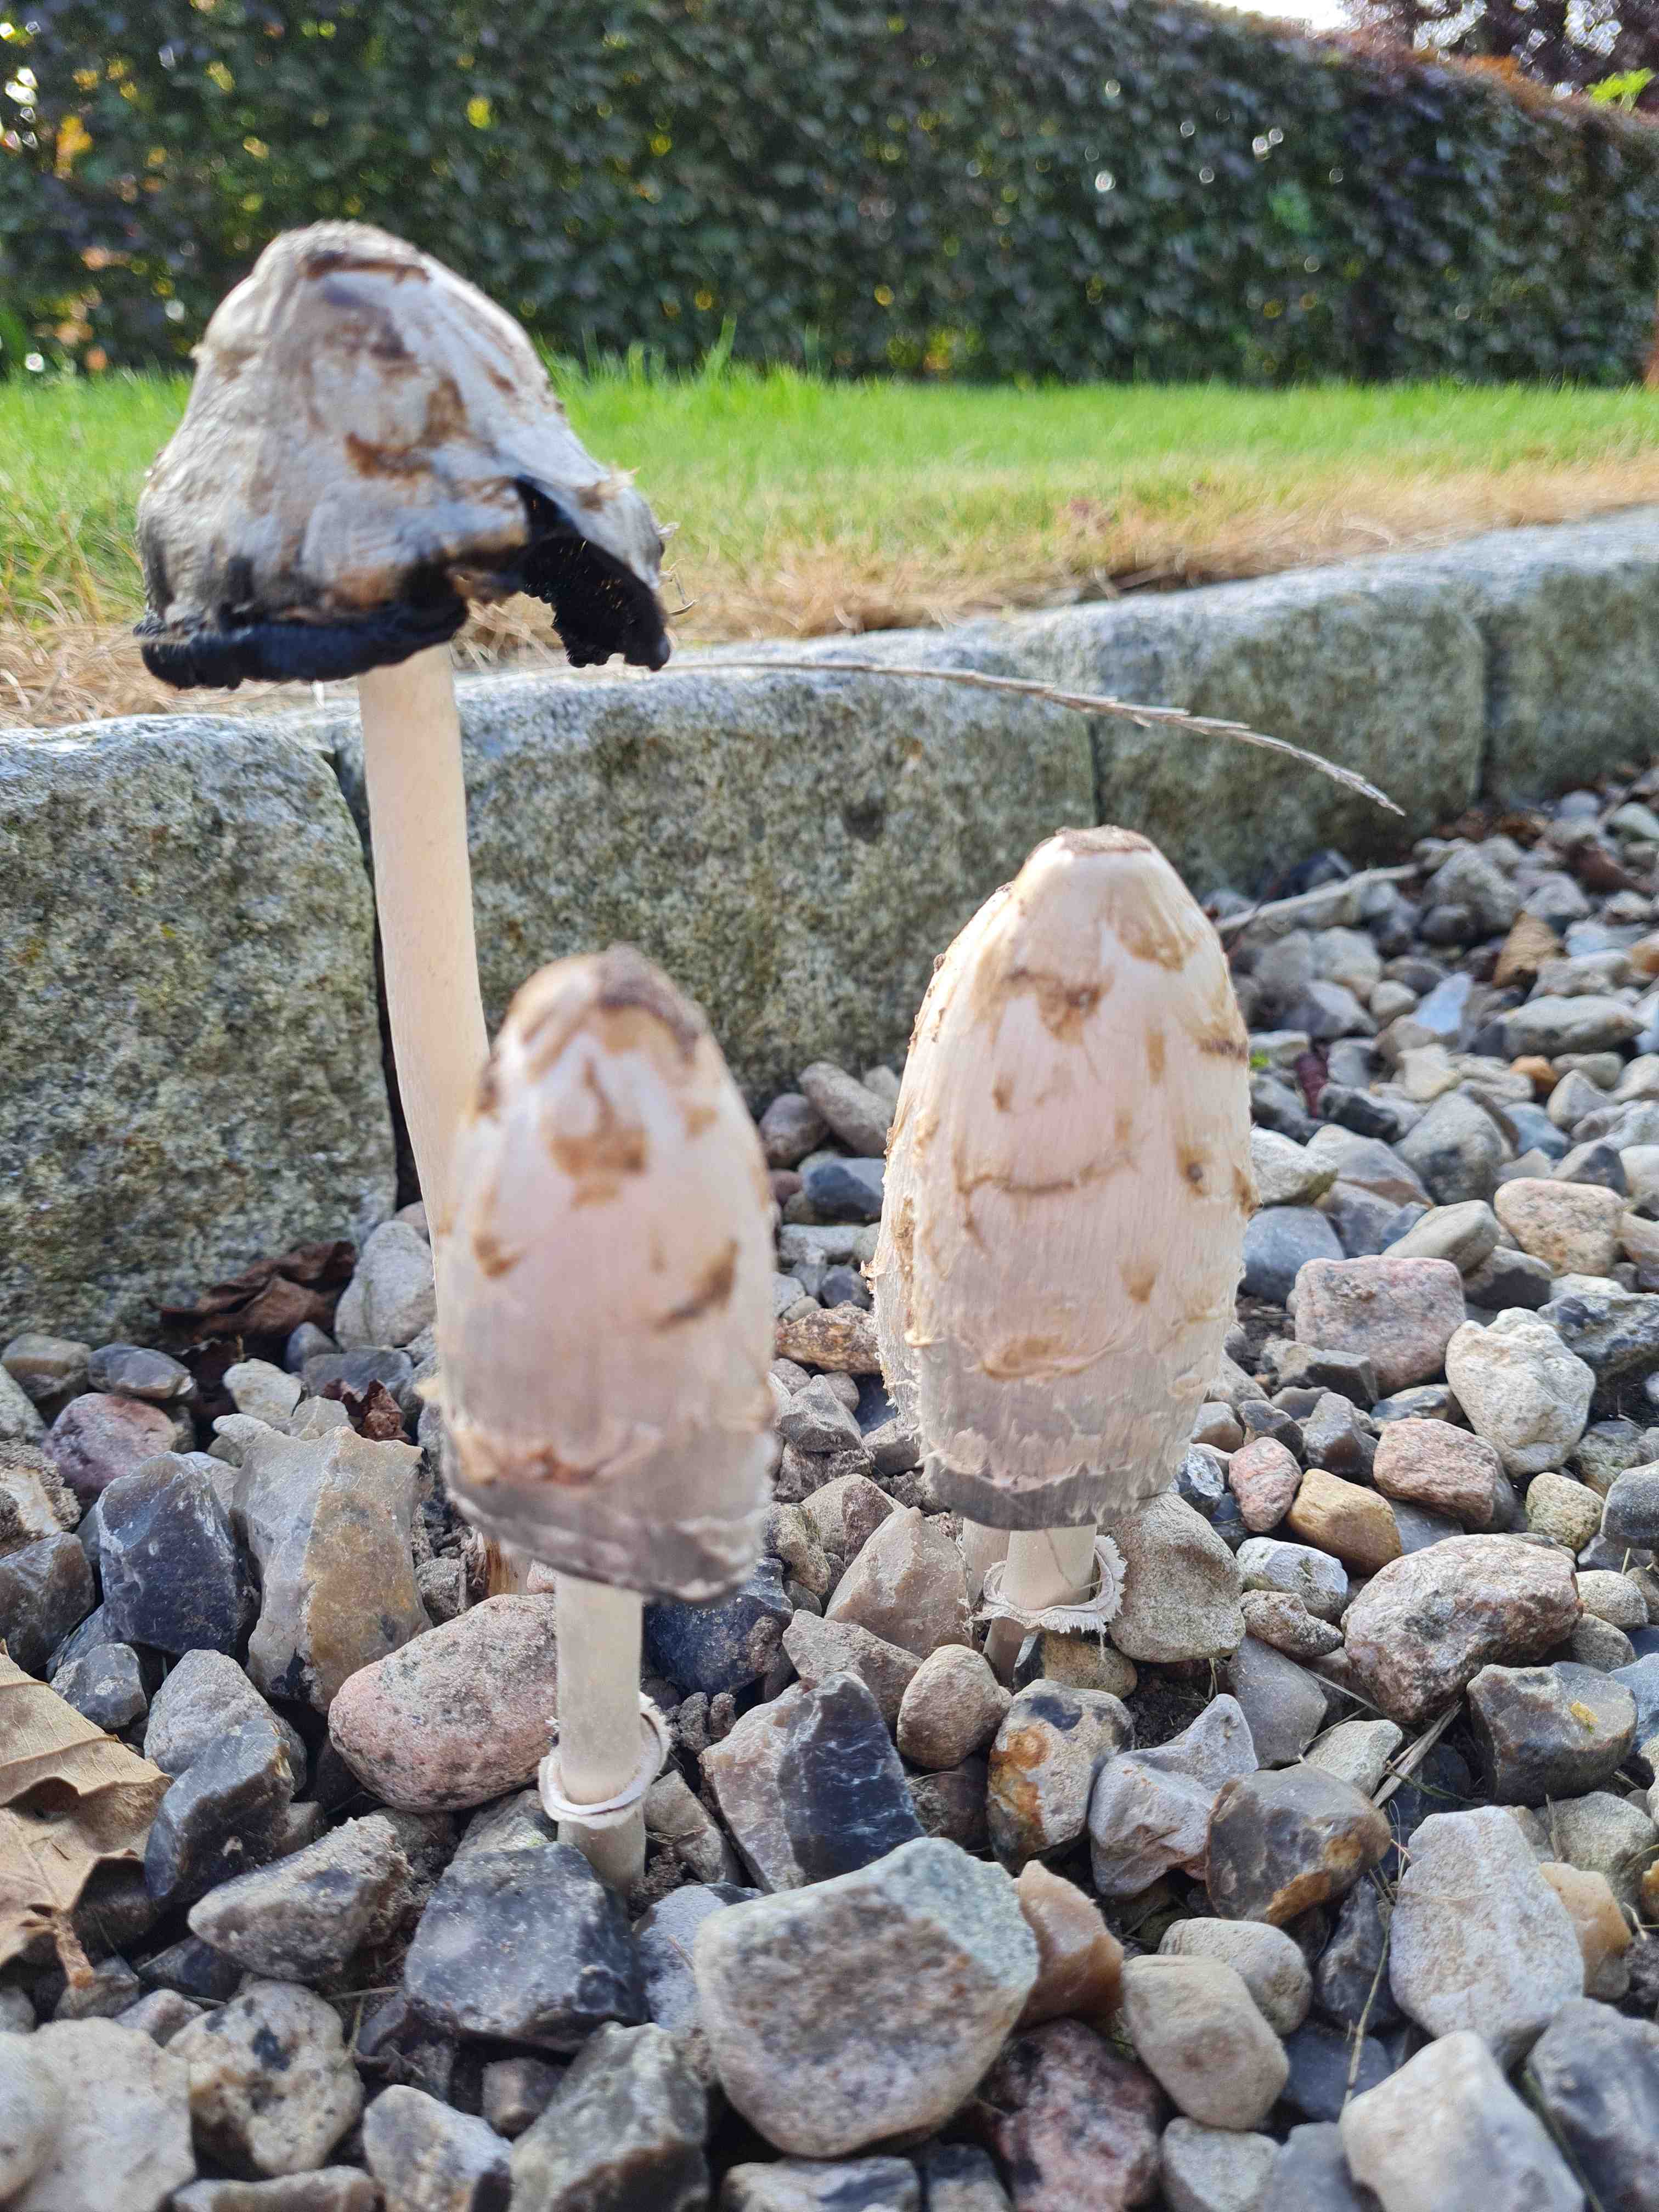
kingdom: Fungi
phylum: Basidiomycota
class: Agaricomycetes
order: Agaricales
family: Agaricaceae
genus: Coprinus
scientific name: Coprinus comatus
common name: stor parykhat
